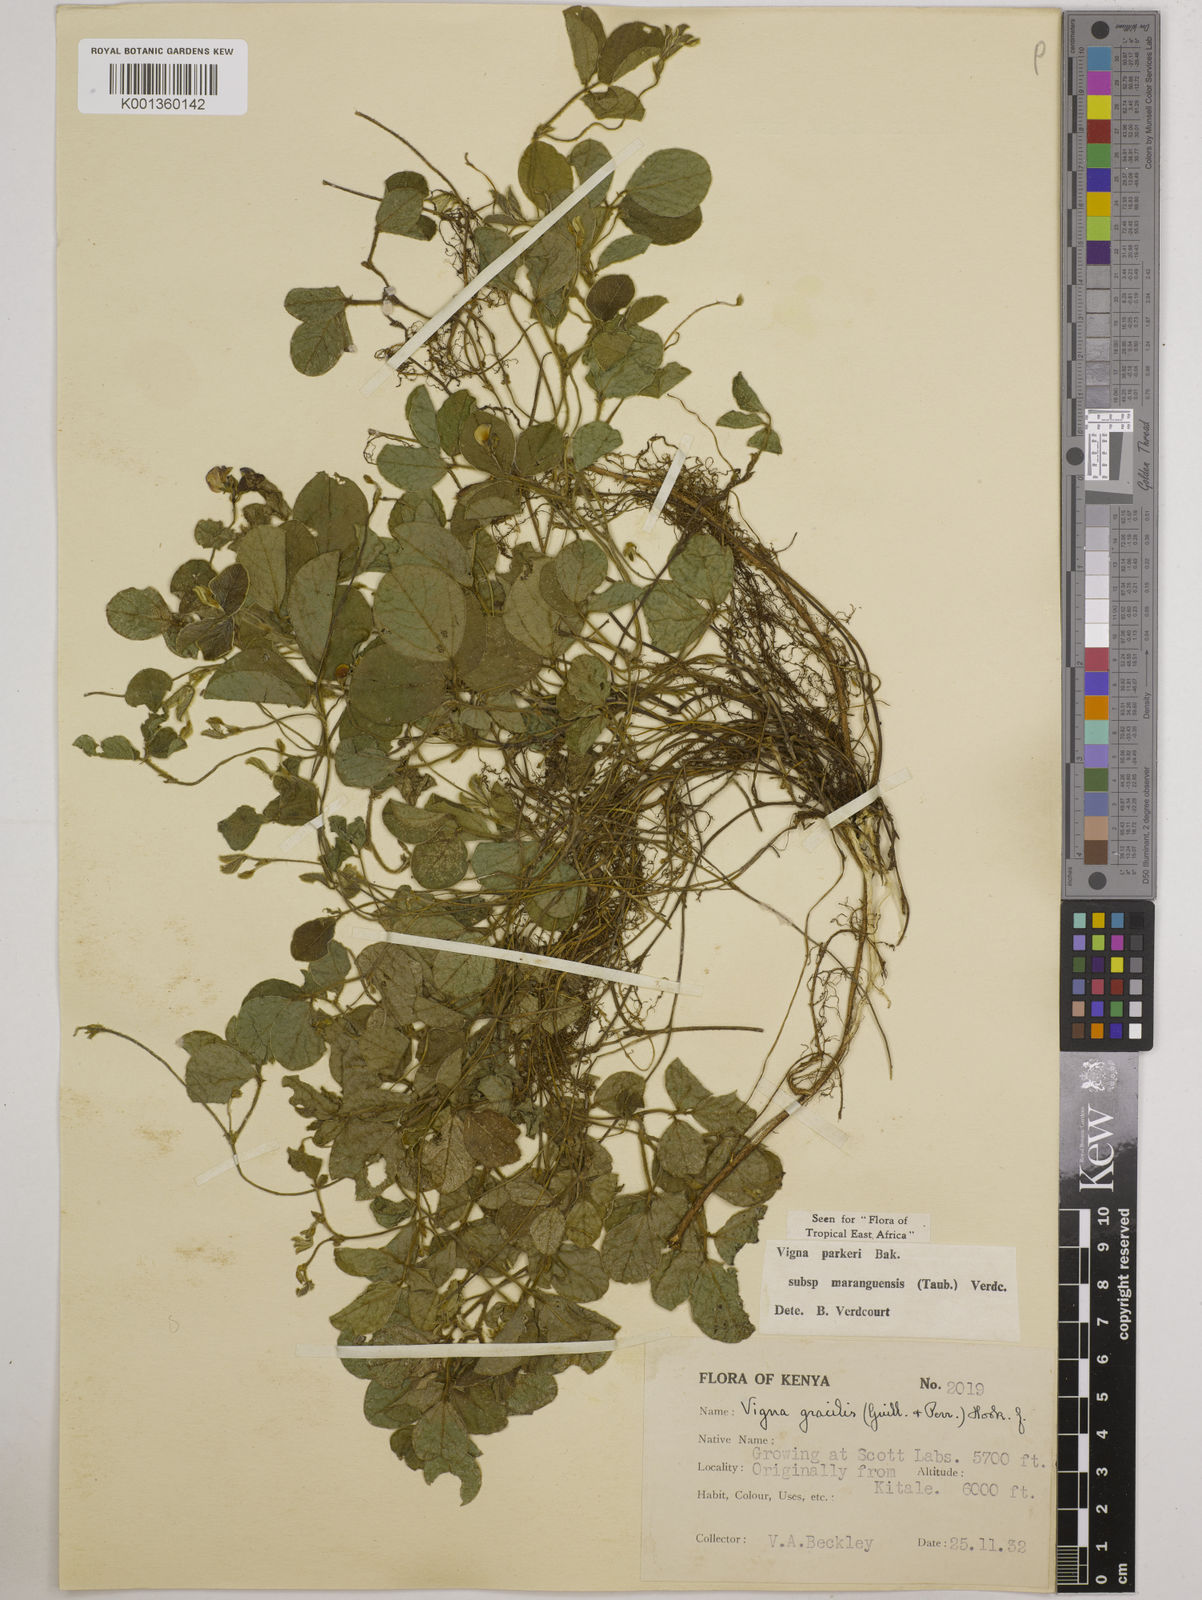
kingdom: Plantae
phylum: Tracheophyta
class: Magnoliopsida
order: Fabales
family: Fabaceae
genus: Vigna
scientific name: Vigna
